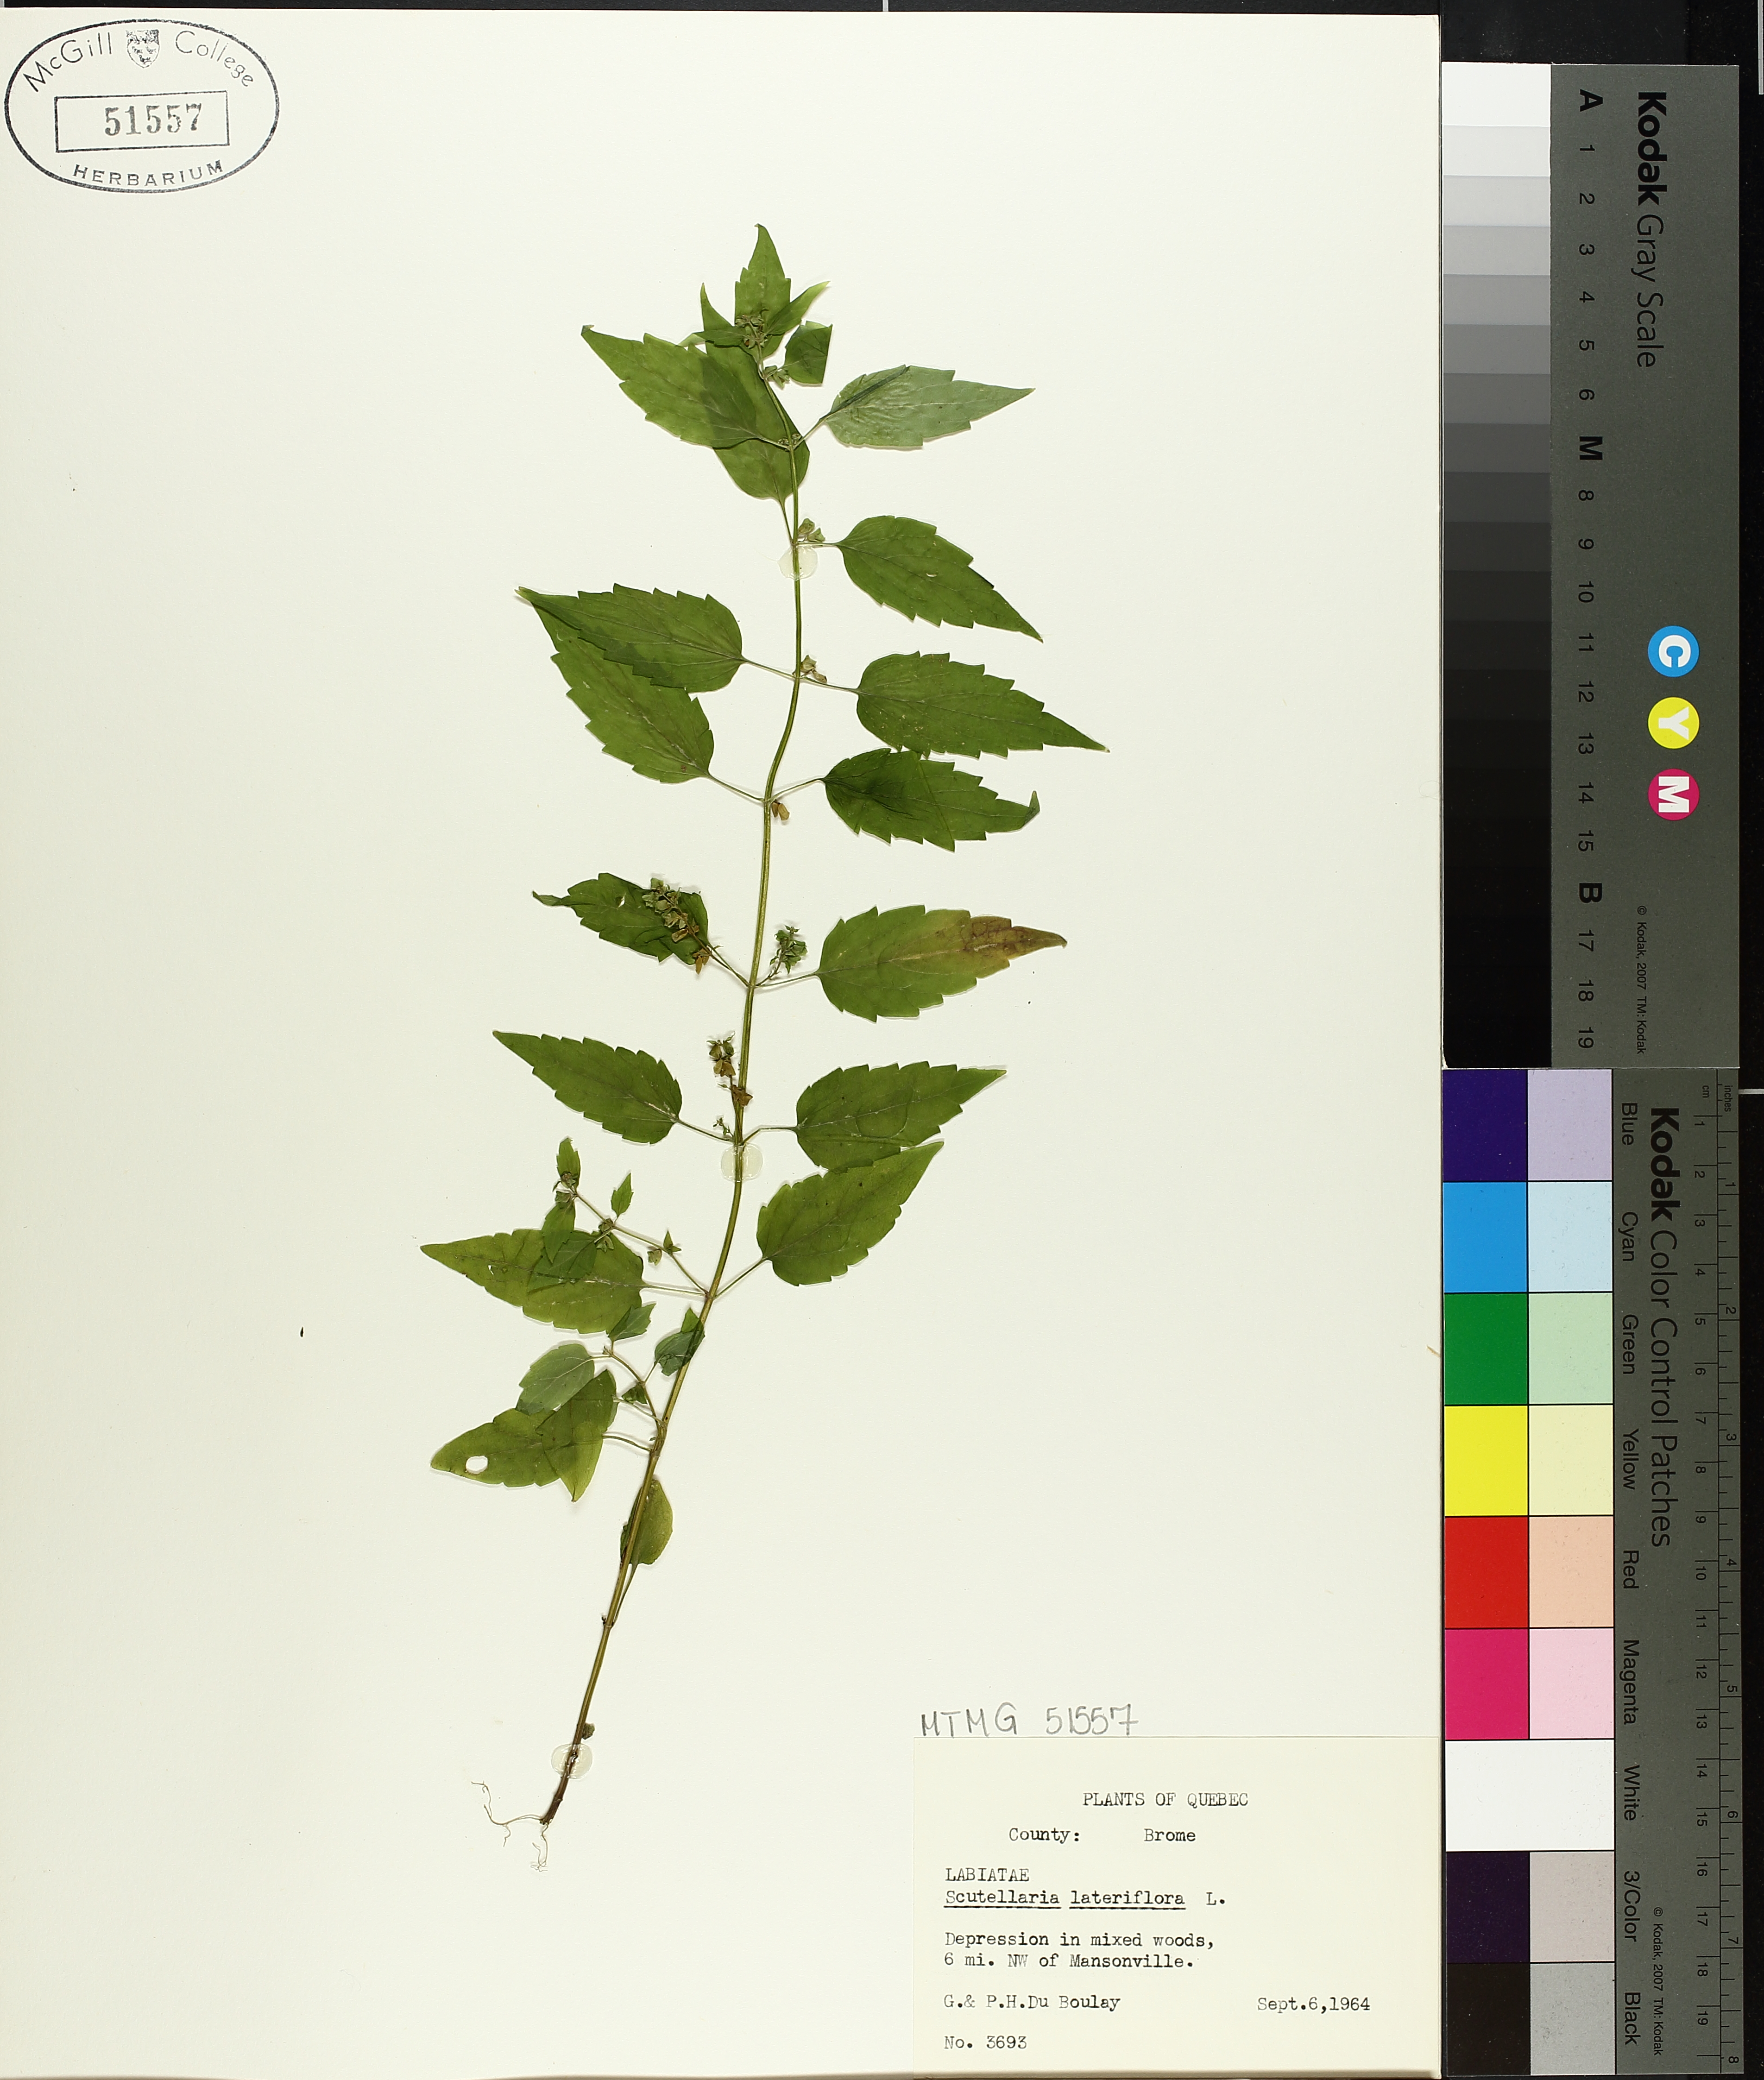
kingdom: Plantae
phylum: Tracheophyta
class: Magnoliopsida
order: Lamiales
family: Lamiaceae
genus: Scutellaria
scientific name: Scutellaria lateriflora
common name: Blue skullcap
